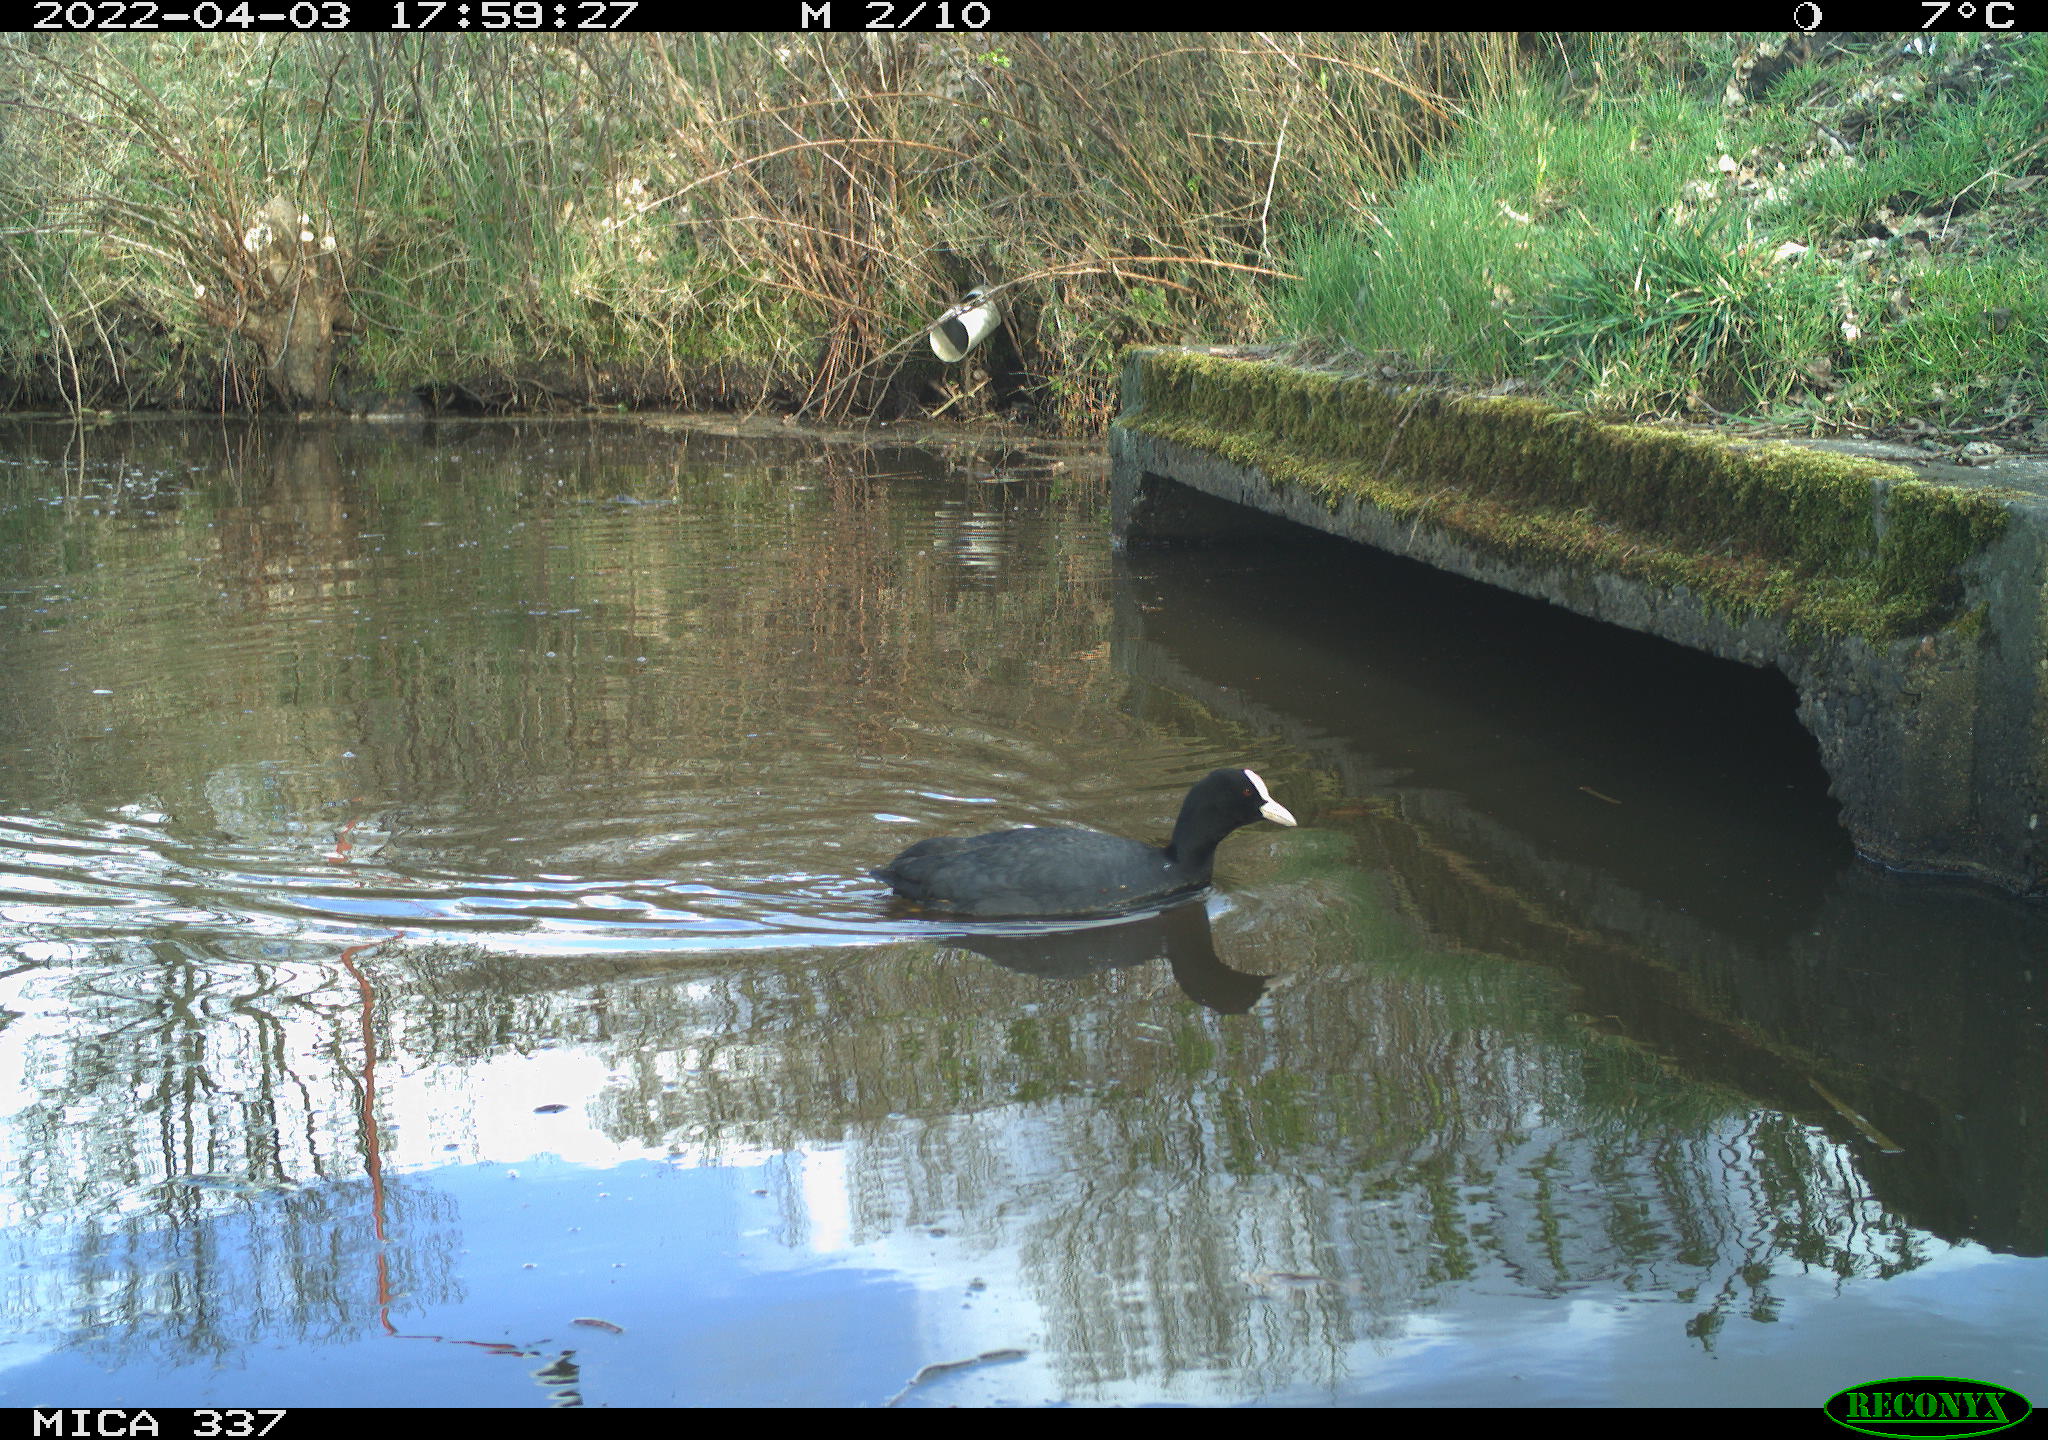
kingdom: Animalia
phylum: Chordata
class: Aves
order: Gruiformes
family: Rallidae
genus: Fulica
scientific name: Fulica atra
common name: Eurasian coot
